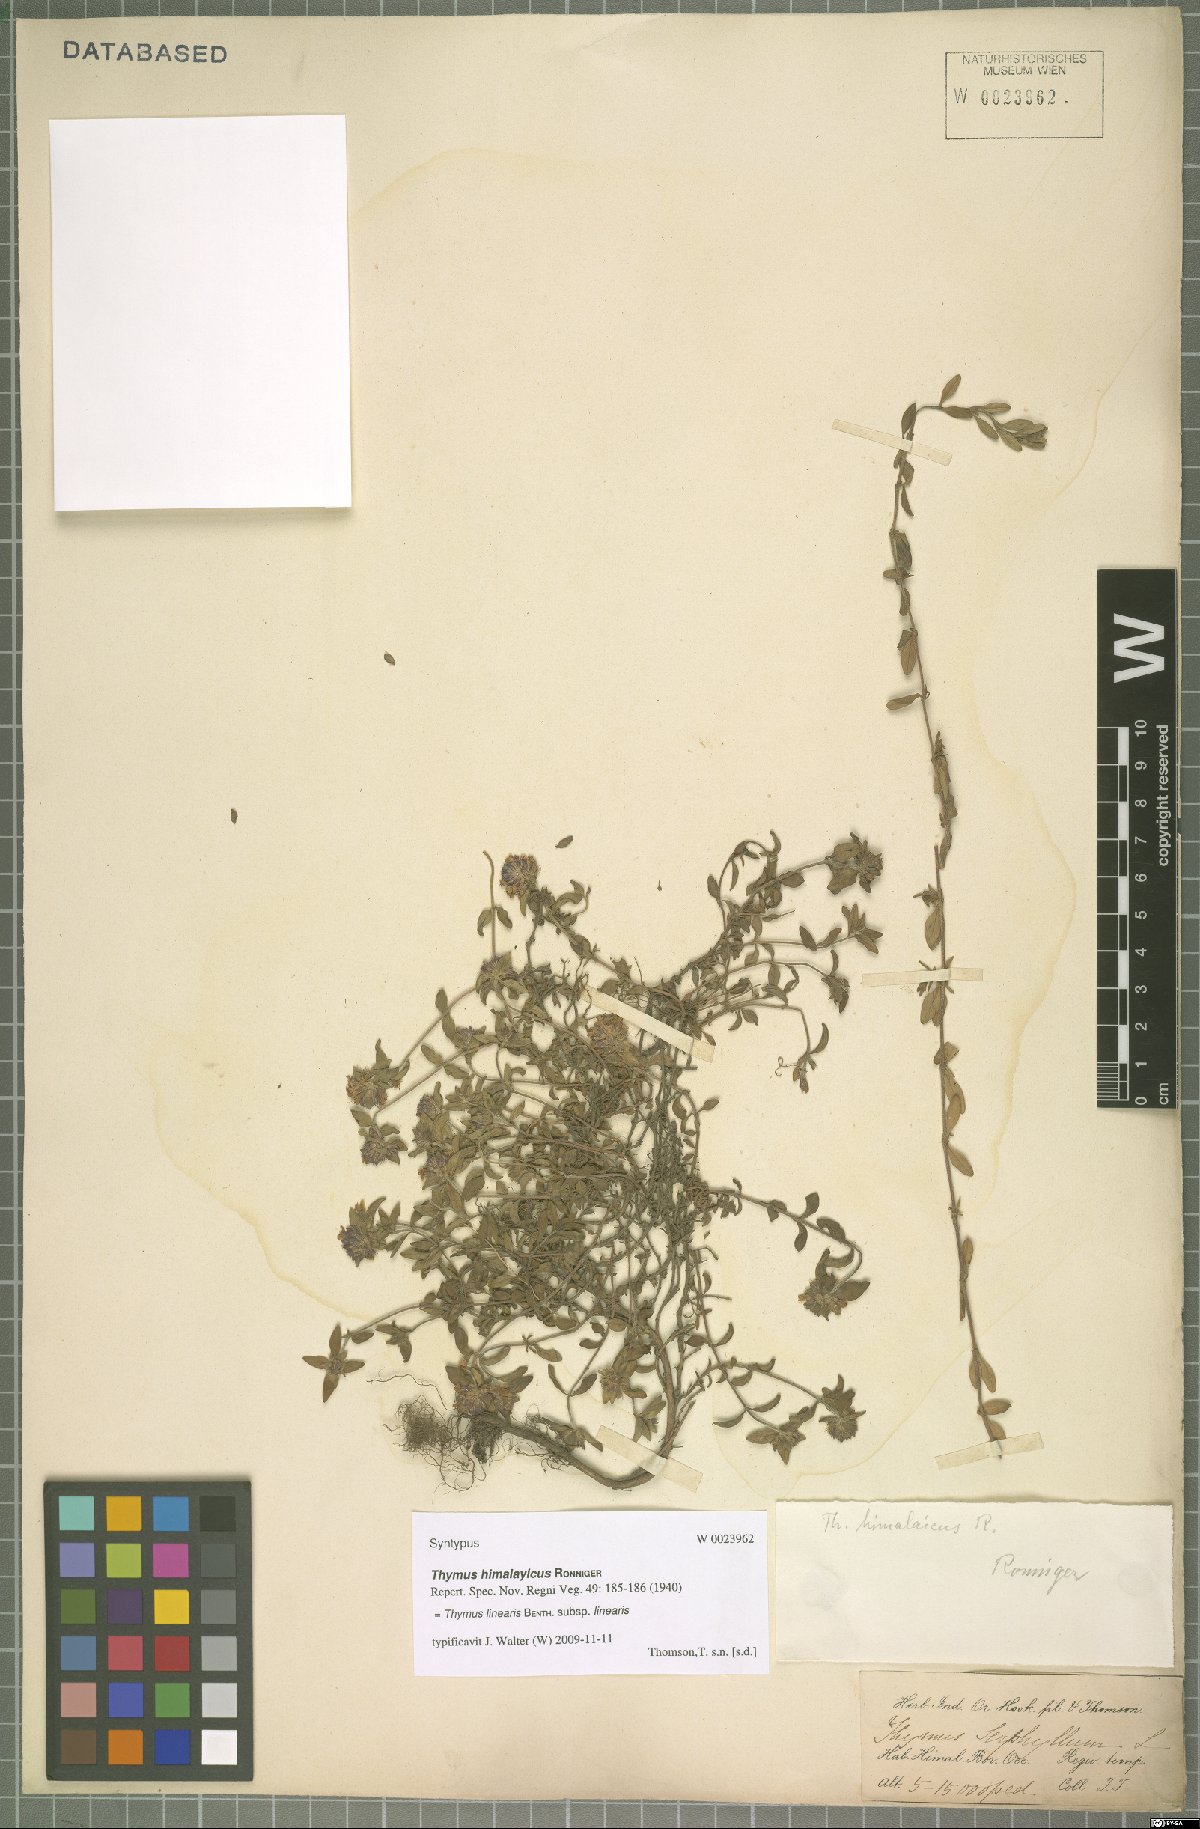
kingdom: Plantae
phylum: Tracheophyta
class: Magnoliopsida
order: Lamiales
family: Lamiaceae
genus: Thymus
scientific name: Thymus linearis
